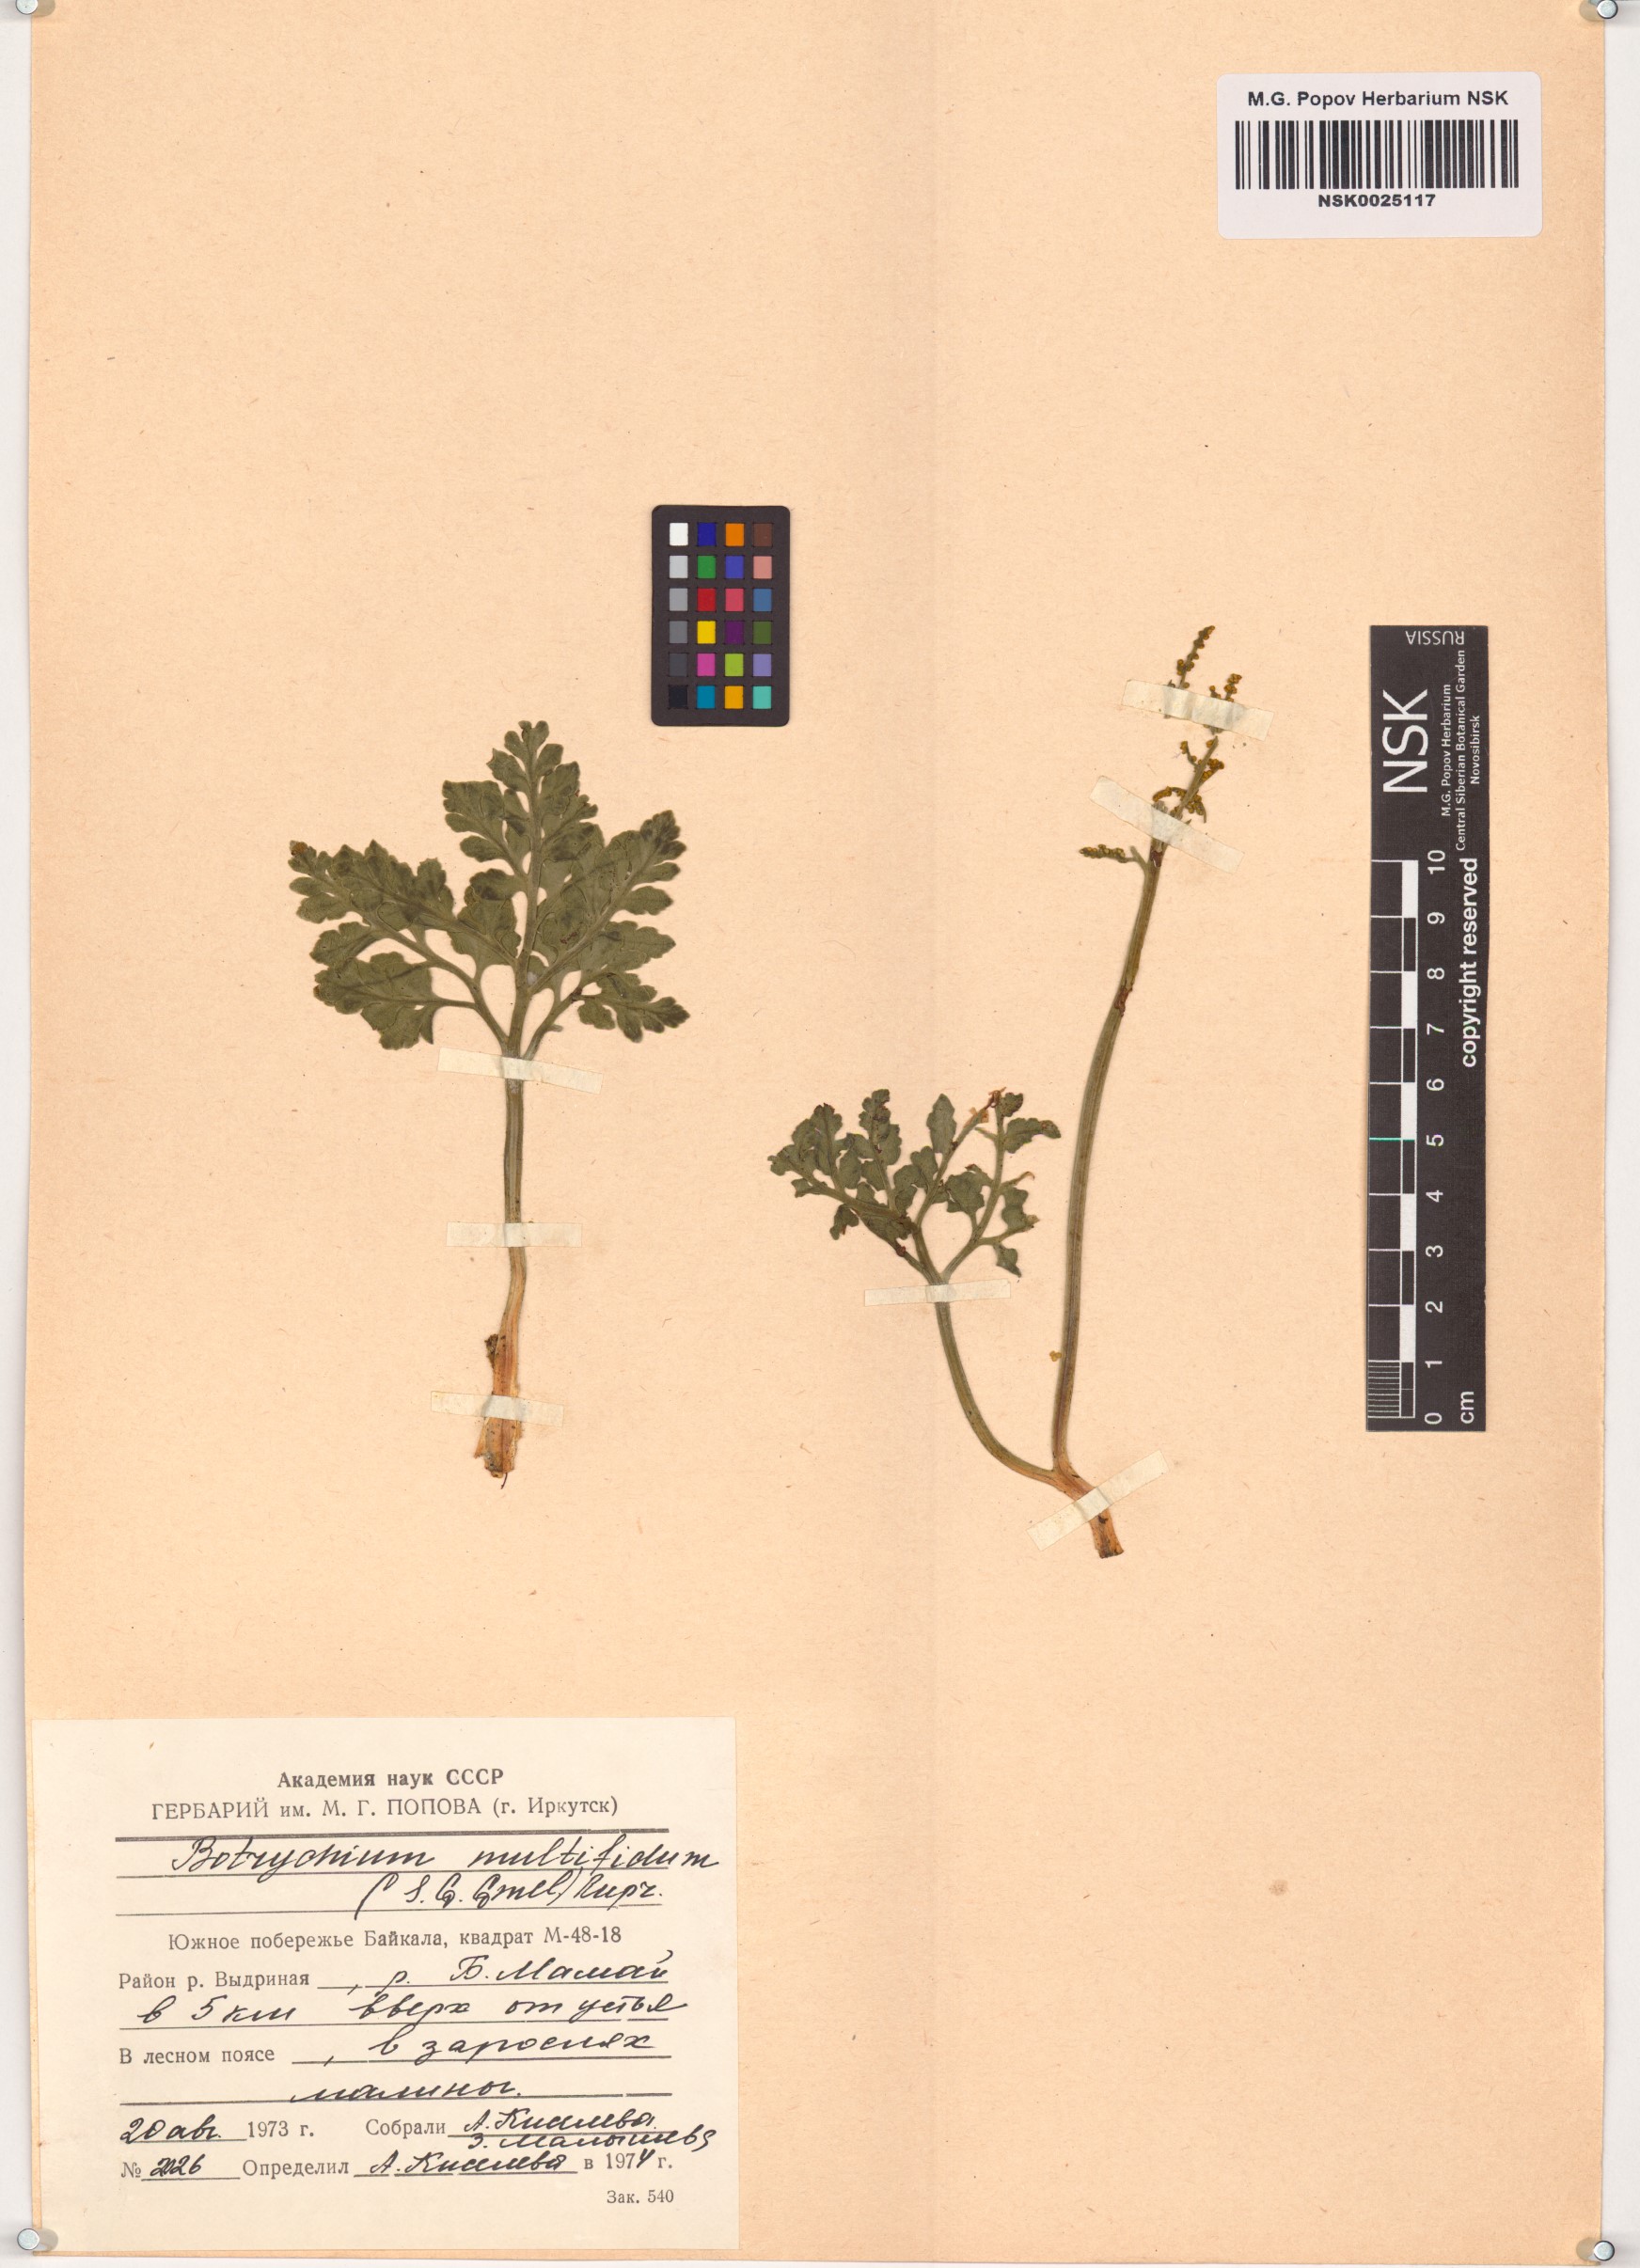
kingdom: Plantae
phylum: Tracheophyta
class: Polypodiopsida
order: Ophioglossales
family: Ophioglossaceae
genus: Sceptridium
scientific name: Sceptridium multifidum
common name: Leathery grape fern
